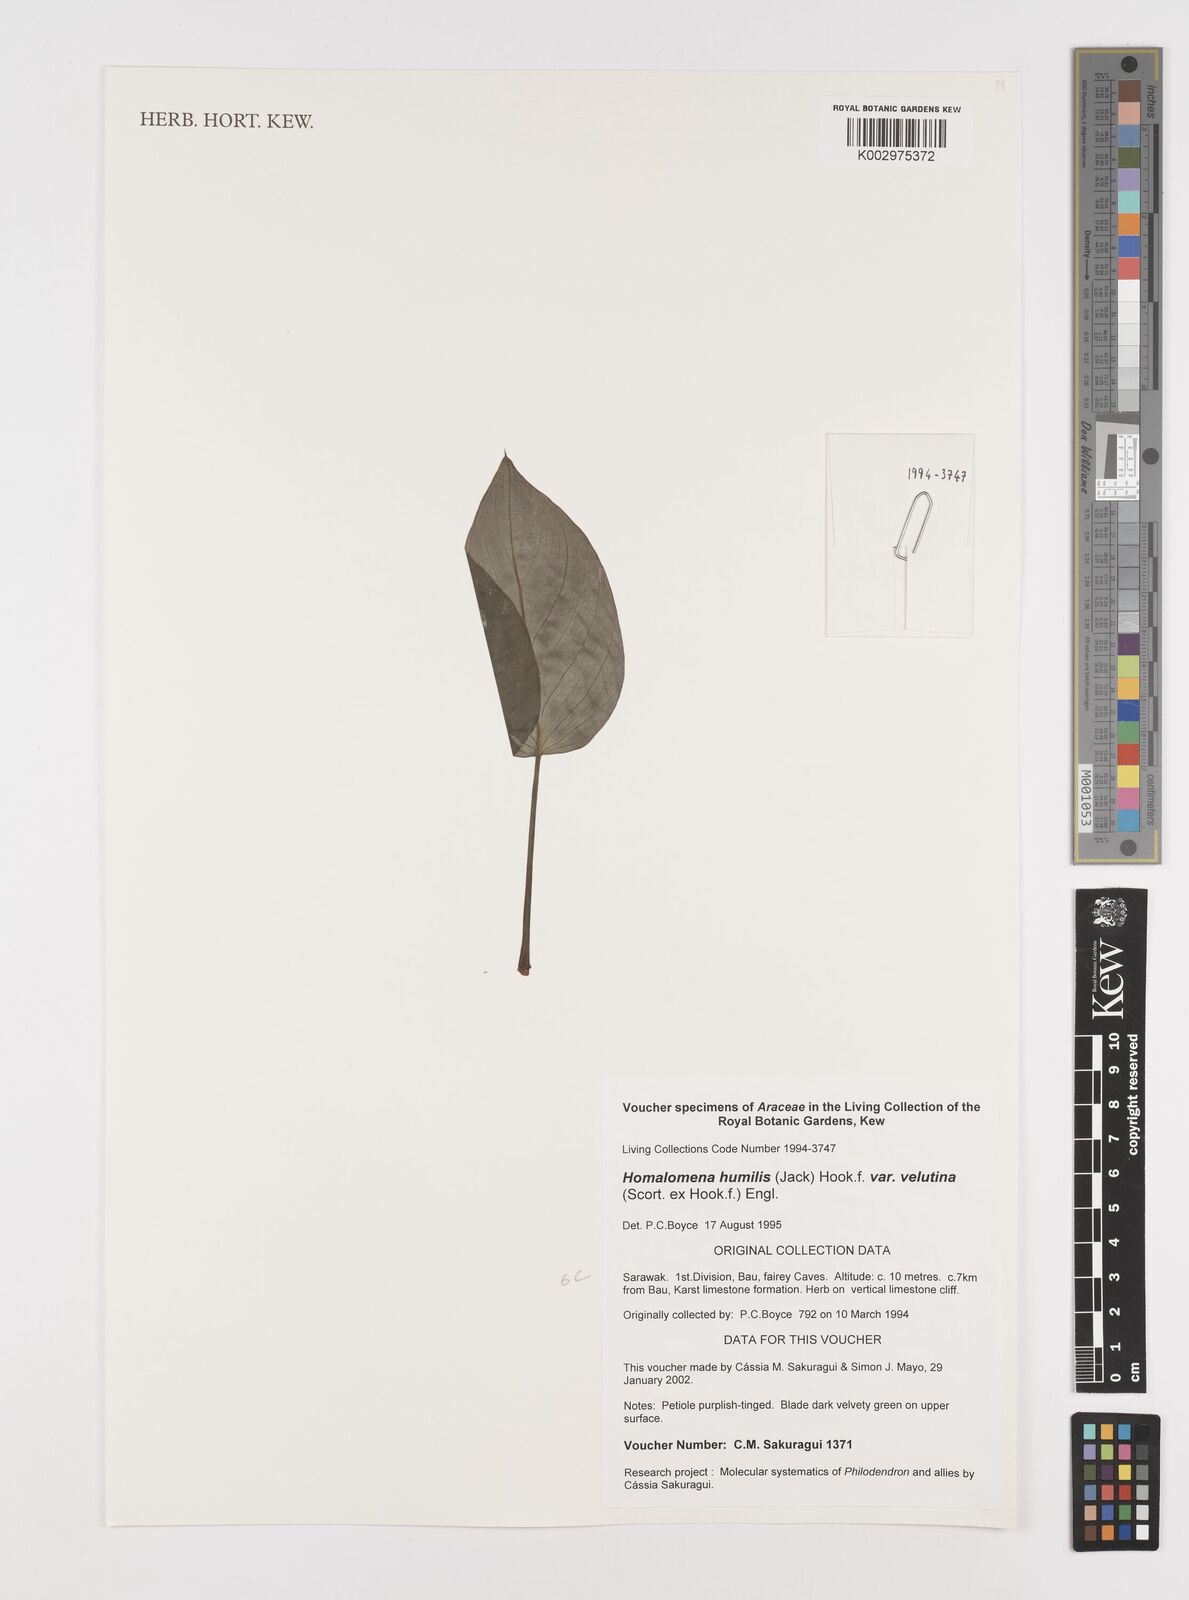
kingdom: Plantae
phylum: Tracheophyta
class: Liliopsida
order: Alismatales
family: Araceae
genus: Homalomena
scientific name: Homalomena humilis
